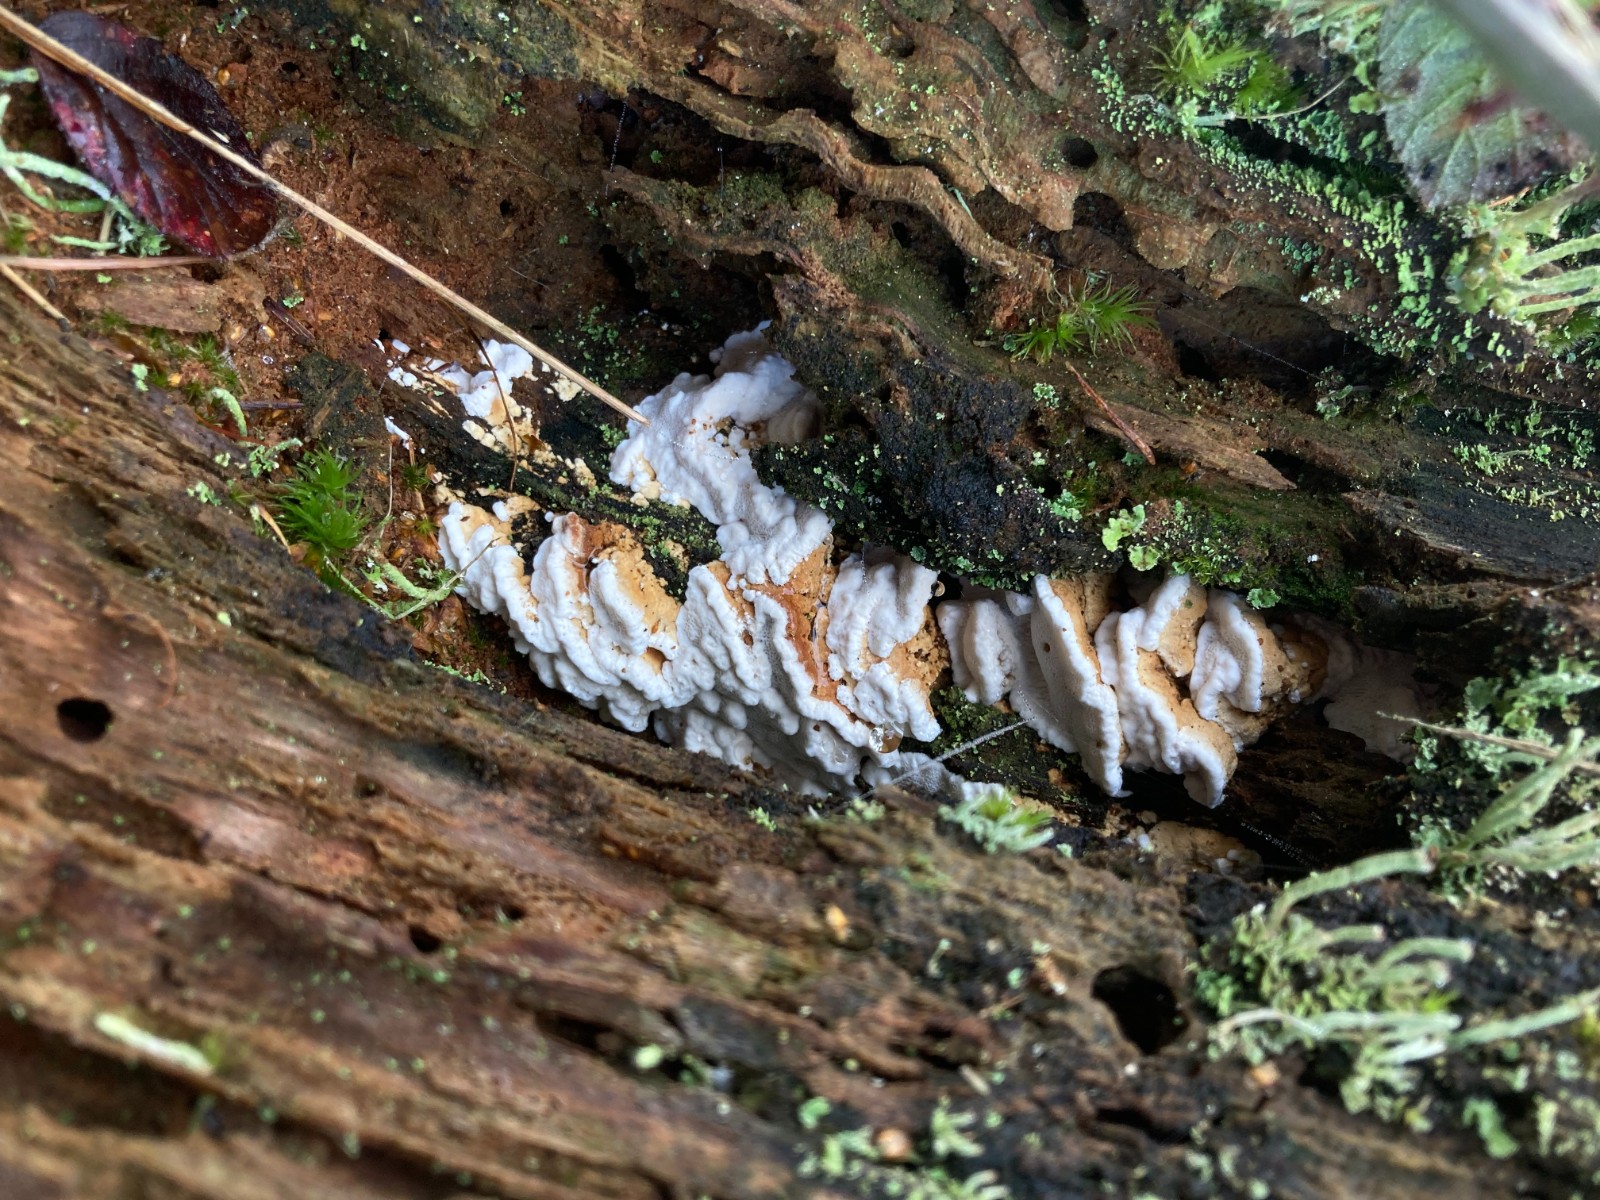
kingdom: Fungi
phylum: Basidiomycota
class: Agaricomycetes
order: Polyporales
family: Fomitopsidaceae
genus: Neoantrodia
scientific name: Neoantrodia serialis
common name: række-sejporesvamp
